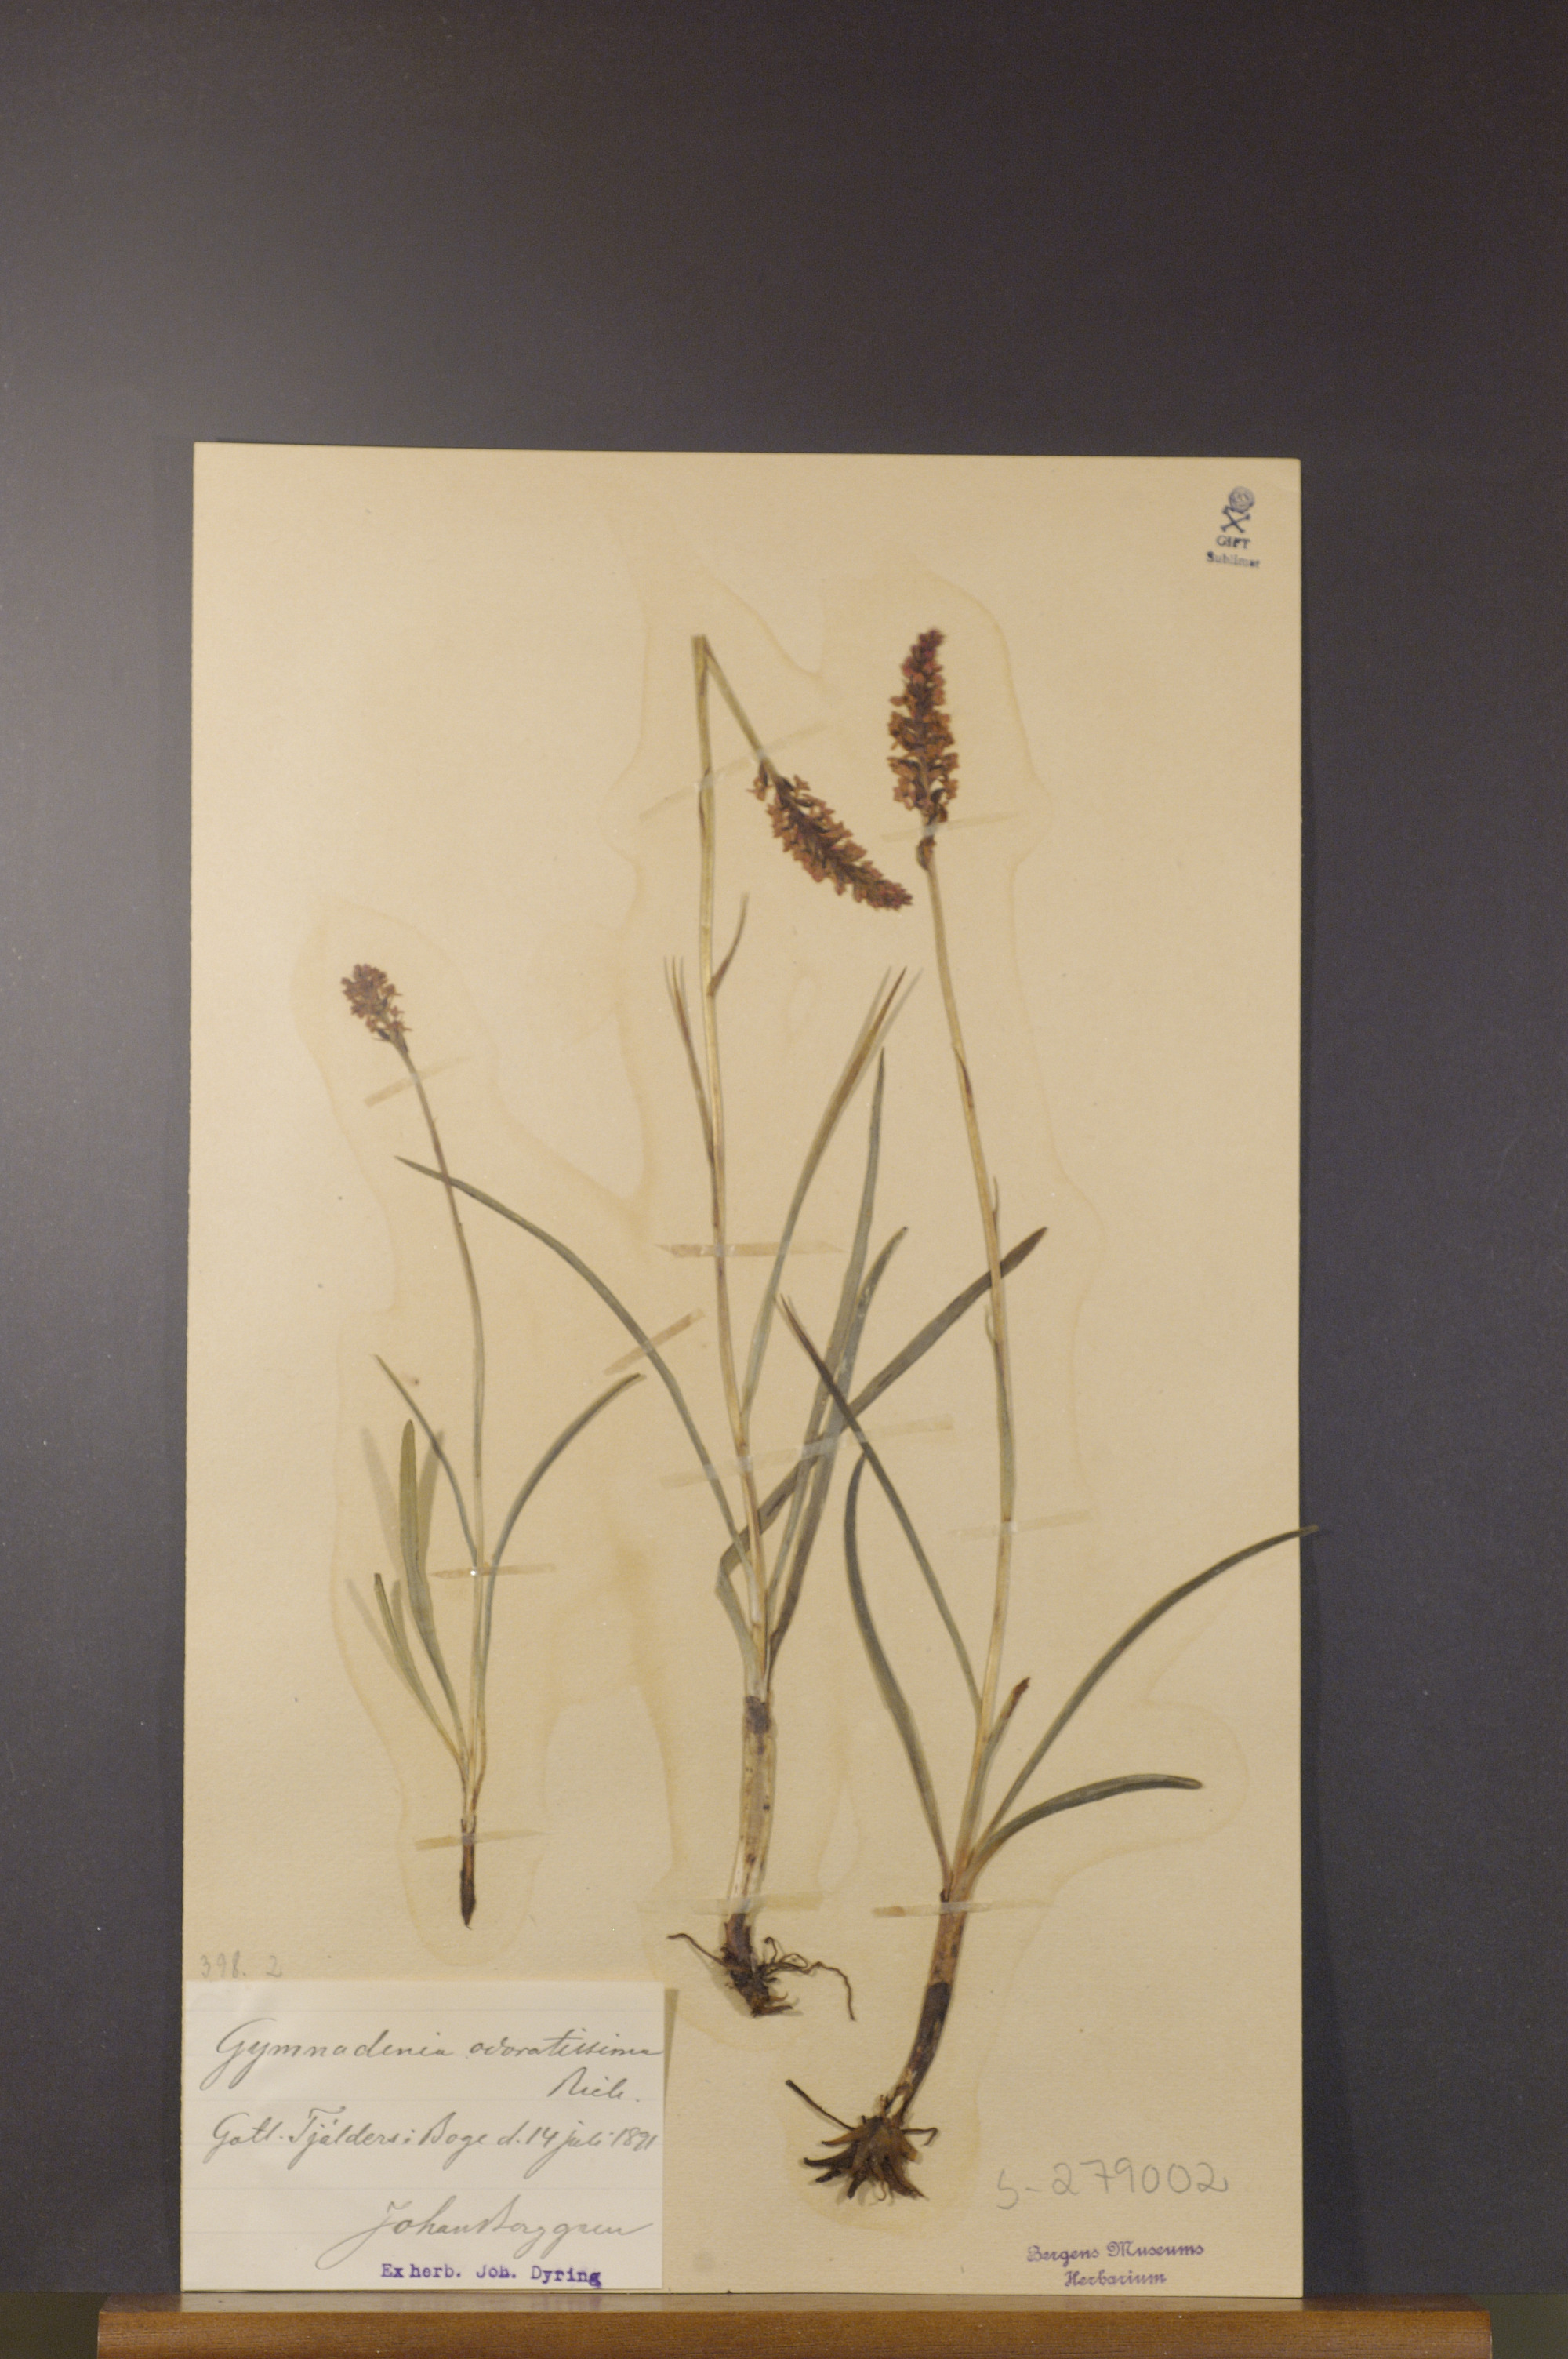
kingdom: Plantae
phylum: Tracheophyta
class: Liliopsida
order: Asparagales
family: Orchidaceae
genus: Gymnadenia
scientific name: Gymnadenia odoratissima
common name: Scented gymnadenia
